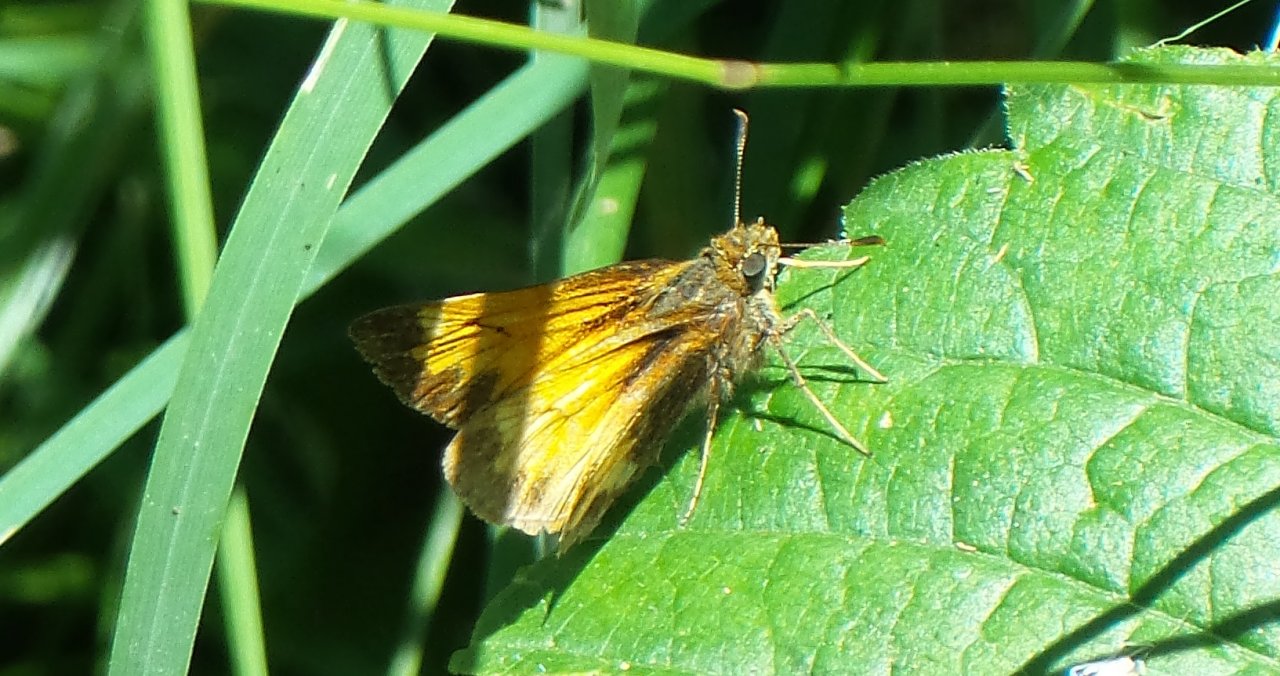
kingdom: Animalia
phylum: Arthropoda
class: Insecta
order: Lepidoptera
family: Hesperiidae
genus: Atrytone
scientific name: Atrytone delaware
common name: Delaware Skipper
